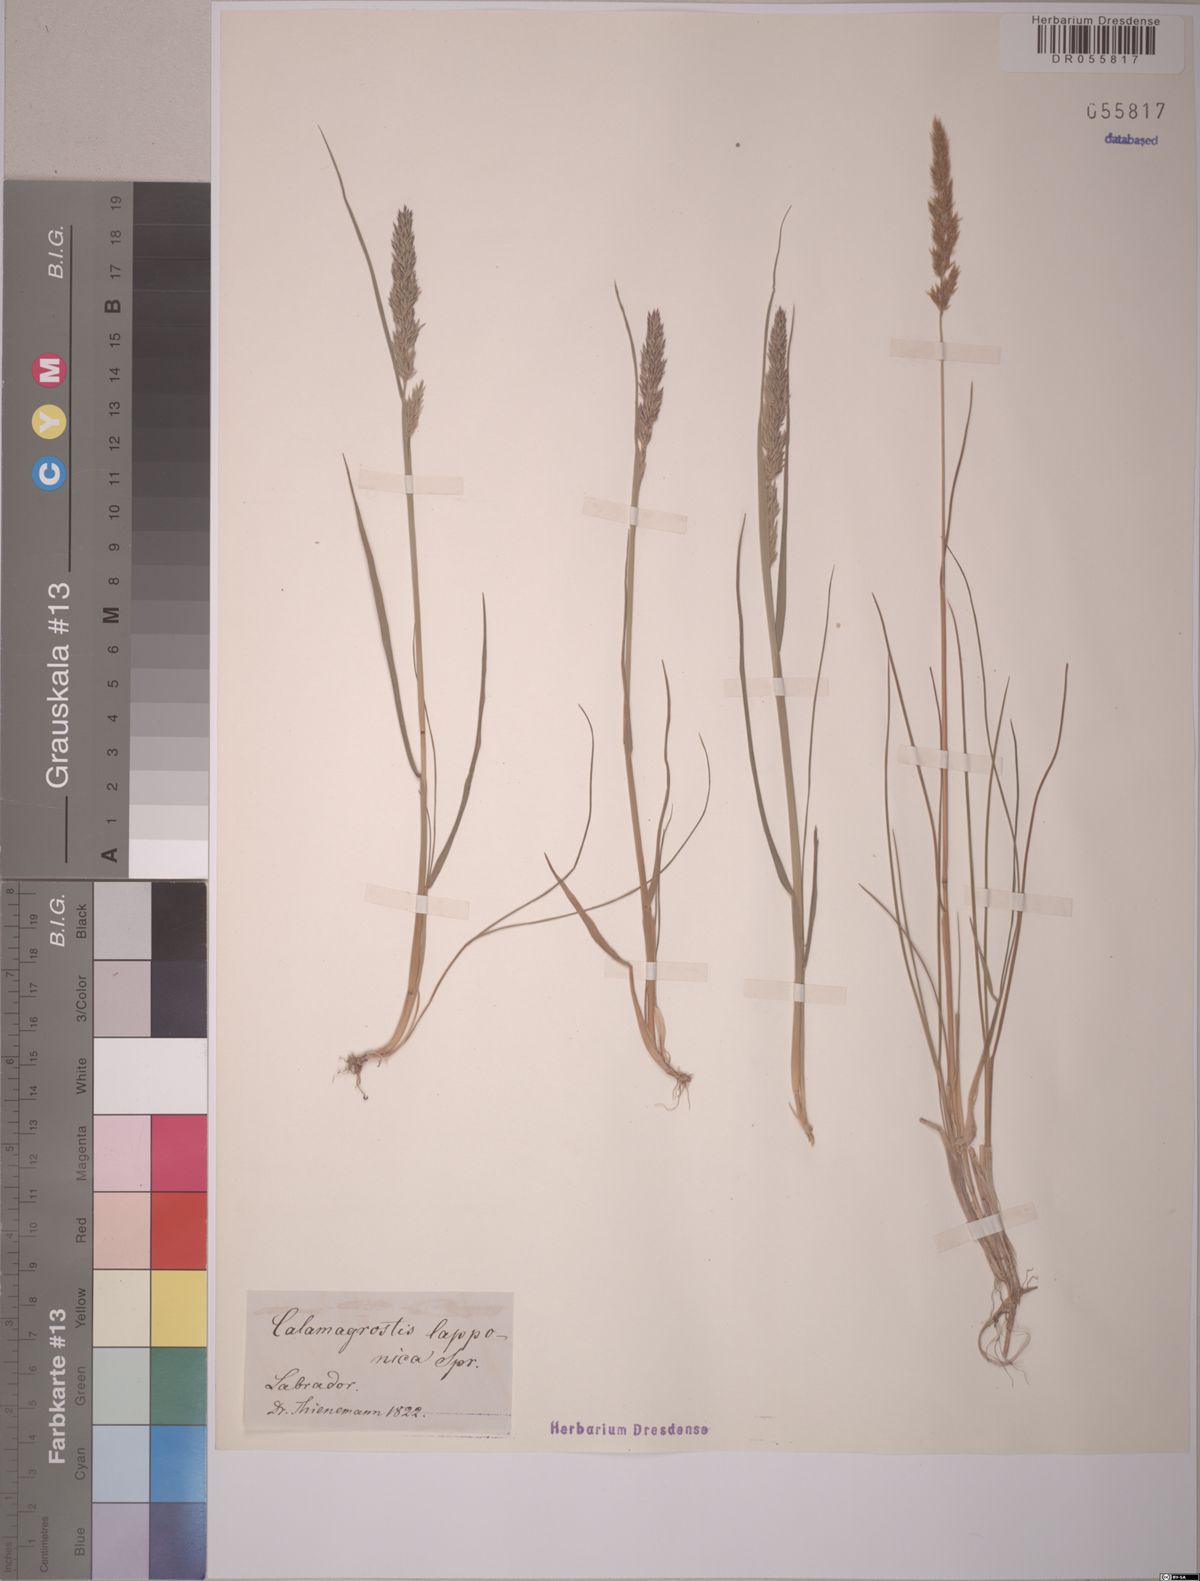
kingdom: Plantae
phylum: Tracheophyta
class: Liliopsida
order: Poales
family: Poaceae
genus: Calamagrostis
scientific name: Calamagrostis lapponica
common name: Lapland reedgrass
